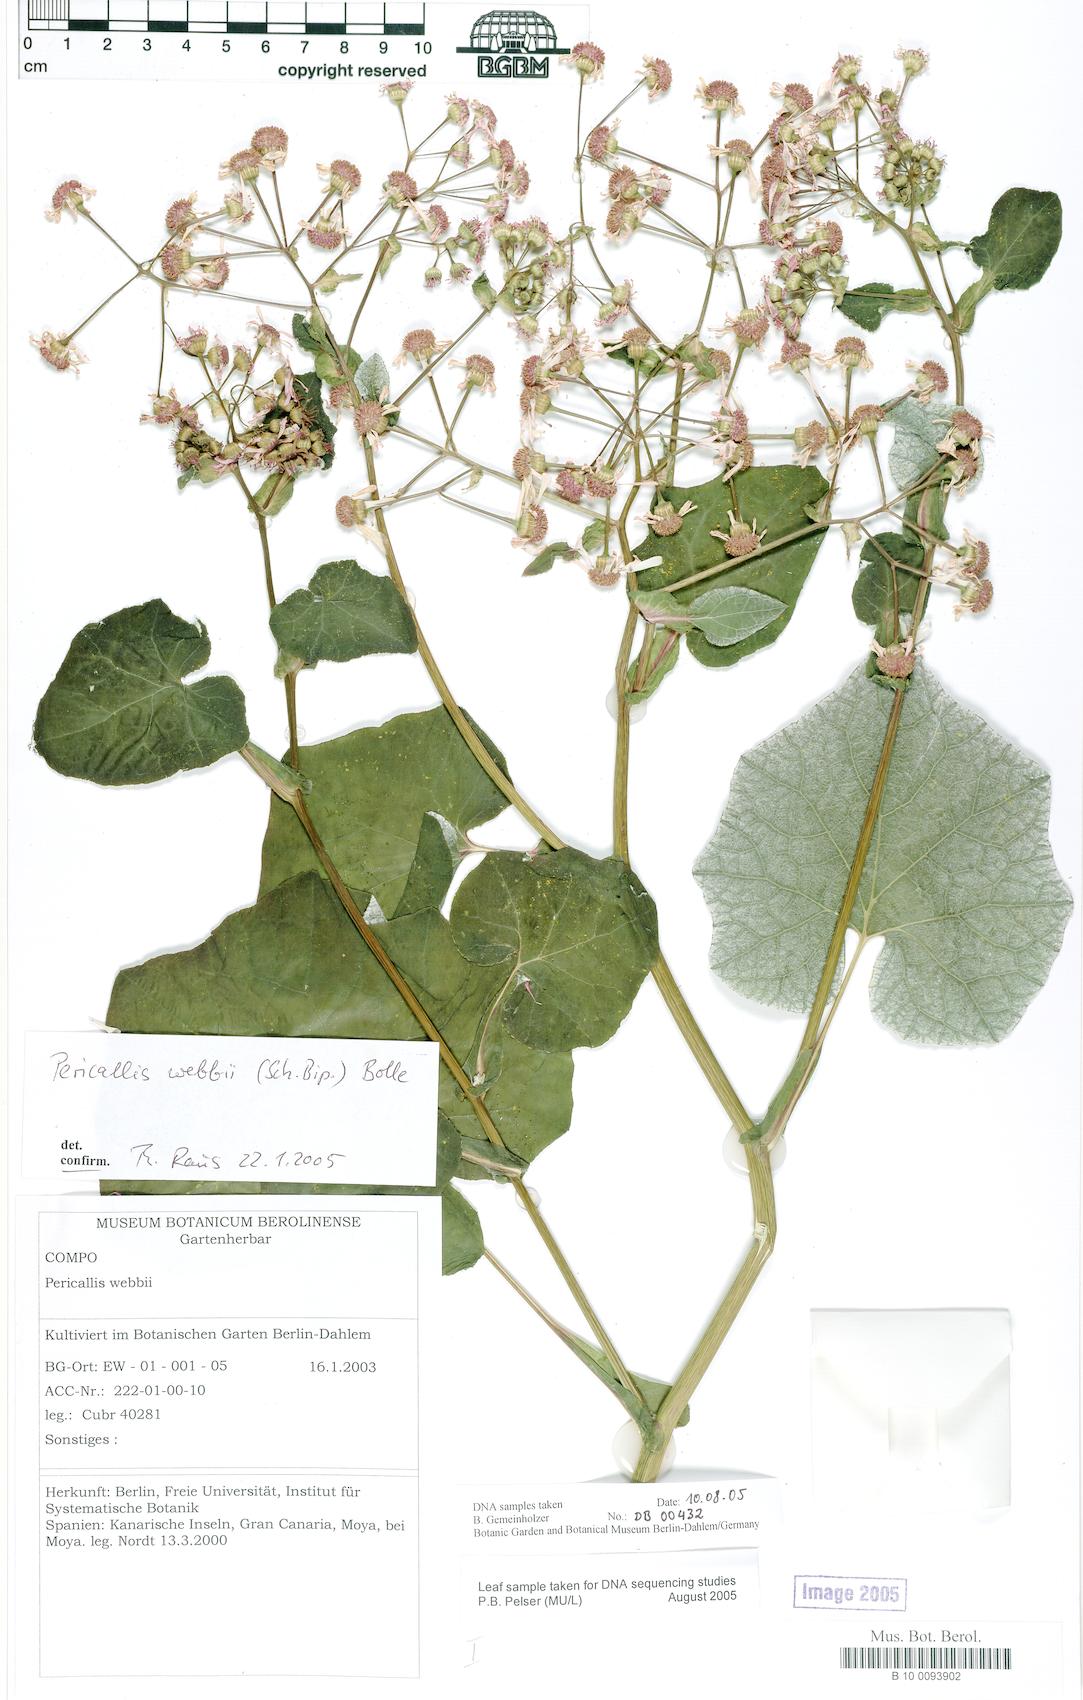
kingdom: Plantae
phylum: Tracheophyta
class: Magnoliopsida
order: Asterales
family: Asteraceae
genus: Pericallis
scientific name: Pericallis webbii
